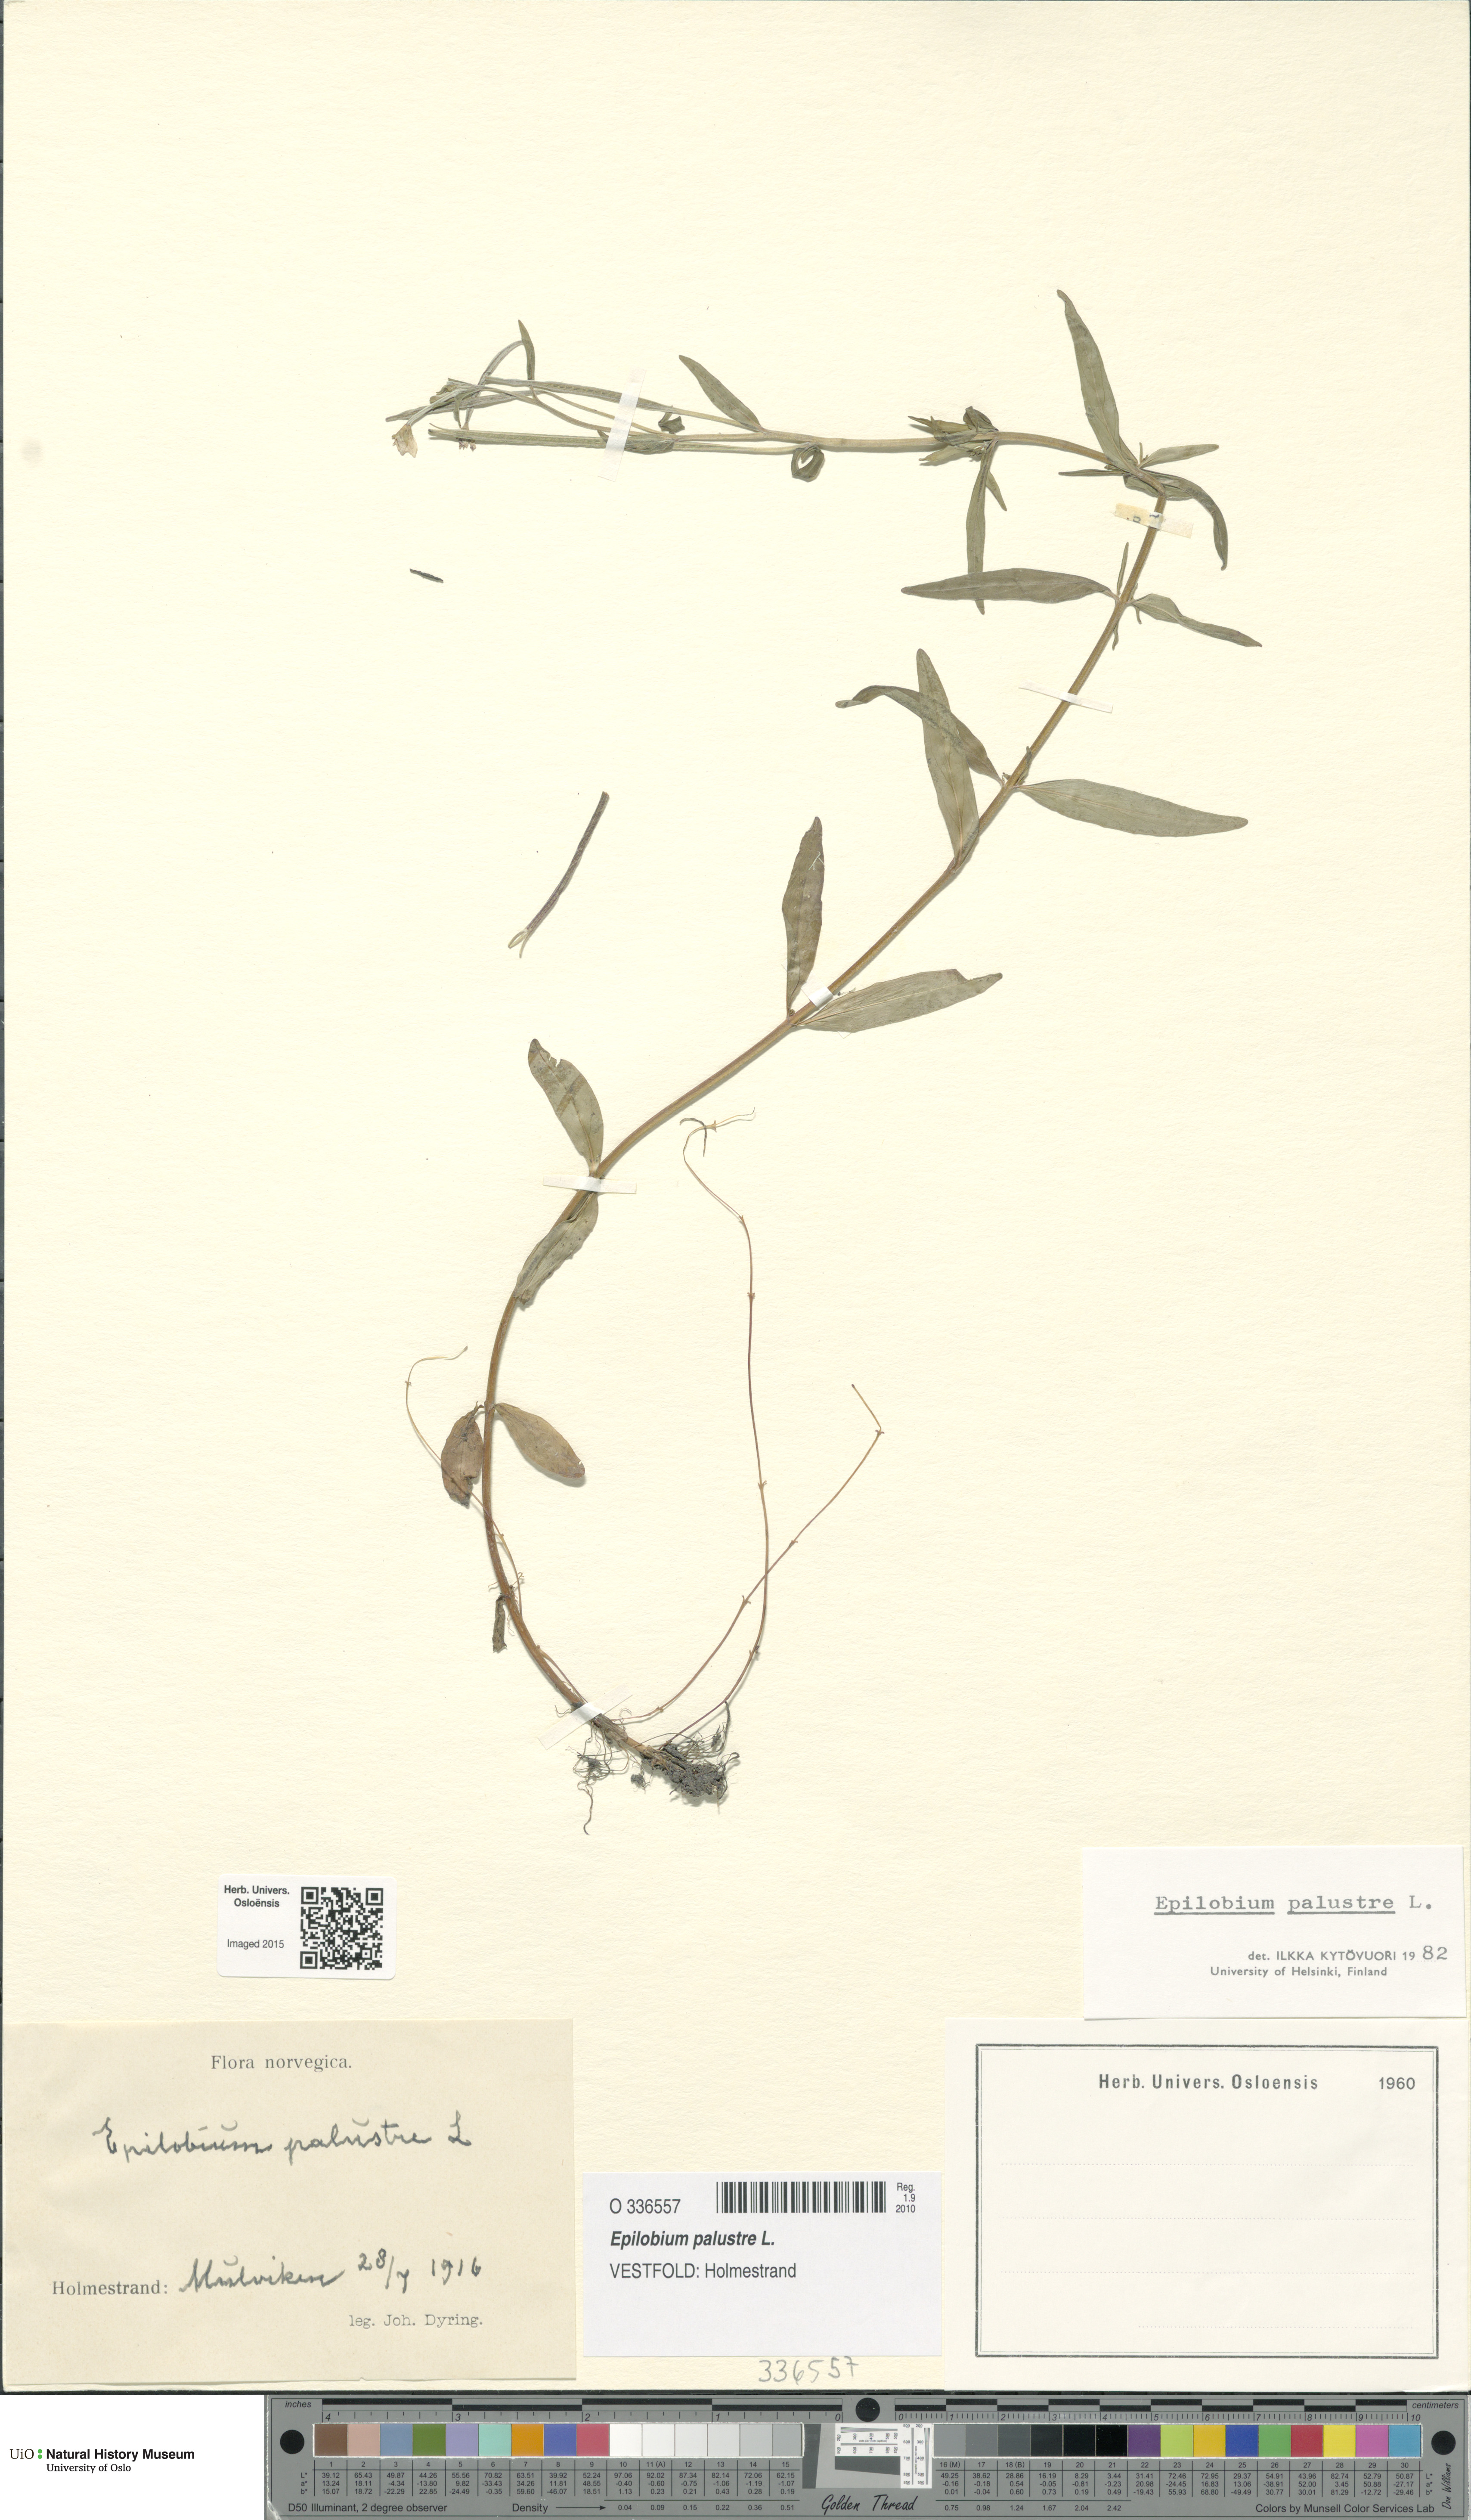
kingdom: Plantae
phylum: Tracheophyta
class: Magnoliopsida
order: Myrtales
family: Onagraceae
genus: Epilobium
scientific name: Epilobium palustre
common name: Marsh willowherb
